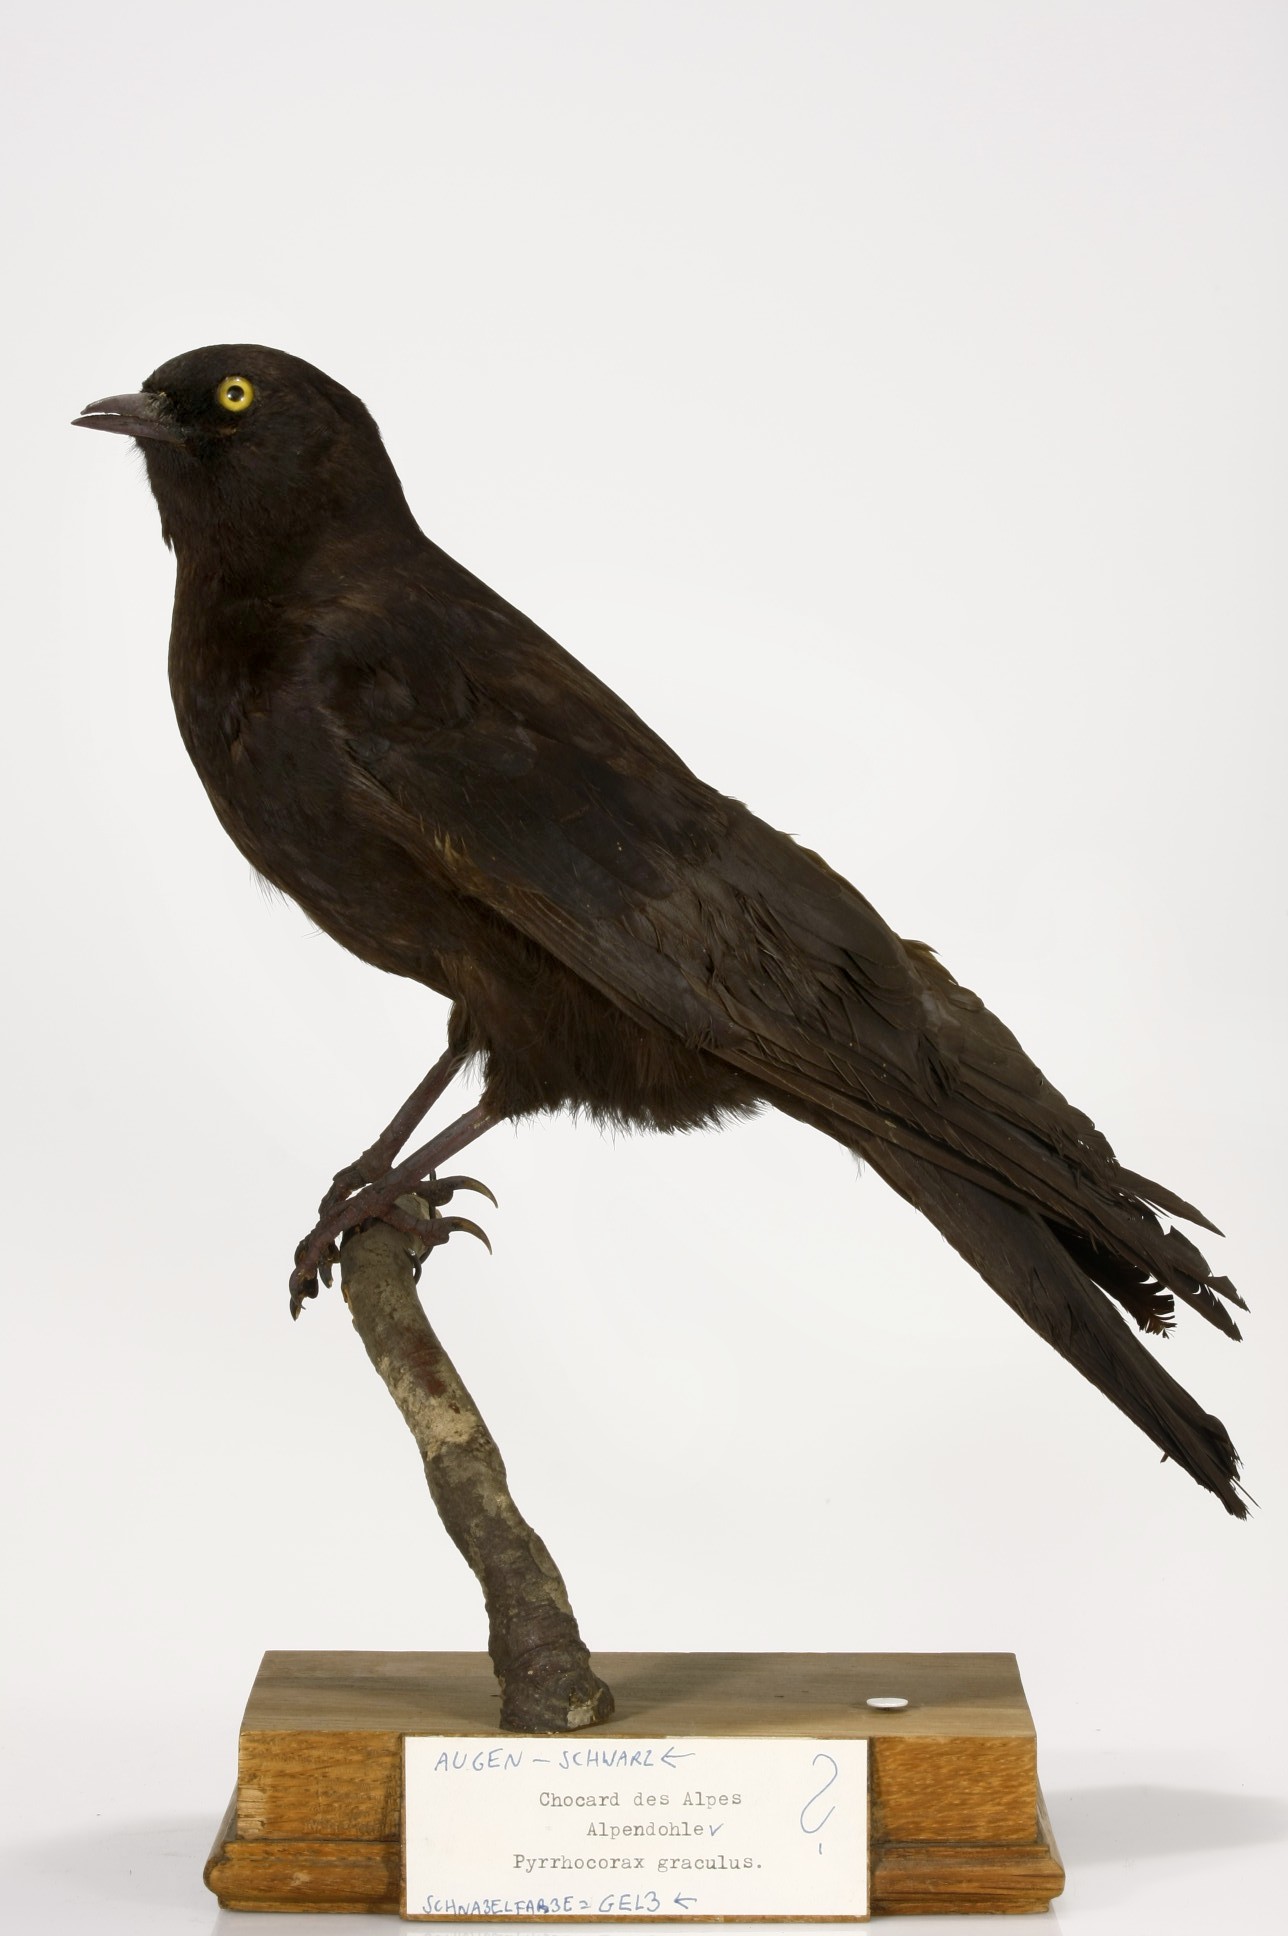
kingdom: Animalia
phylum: Chordata
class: Aves
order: Passeriformes
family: Corvidae
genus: Pyrrhocorax
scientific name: Pyrrhocorax graculus
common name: Alpine chough
